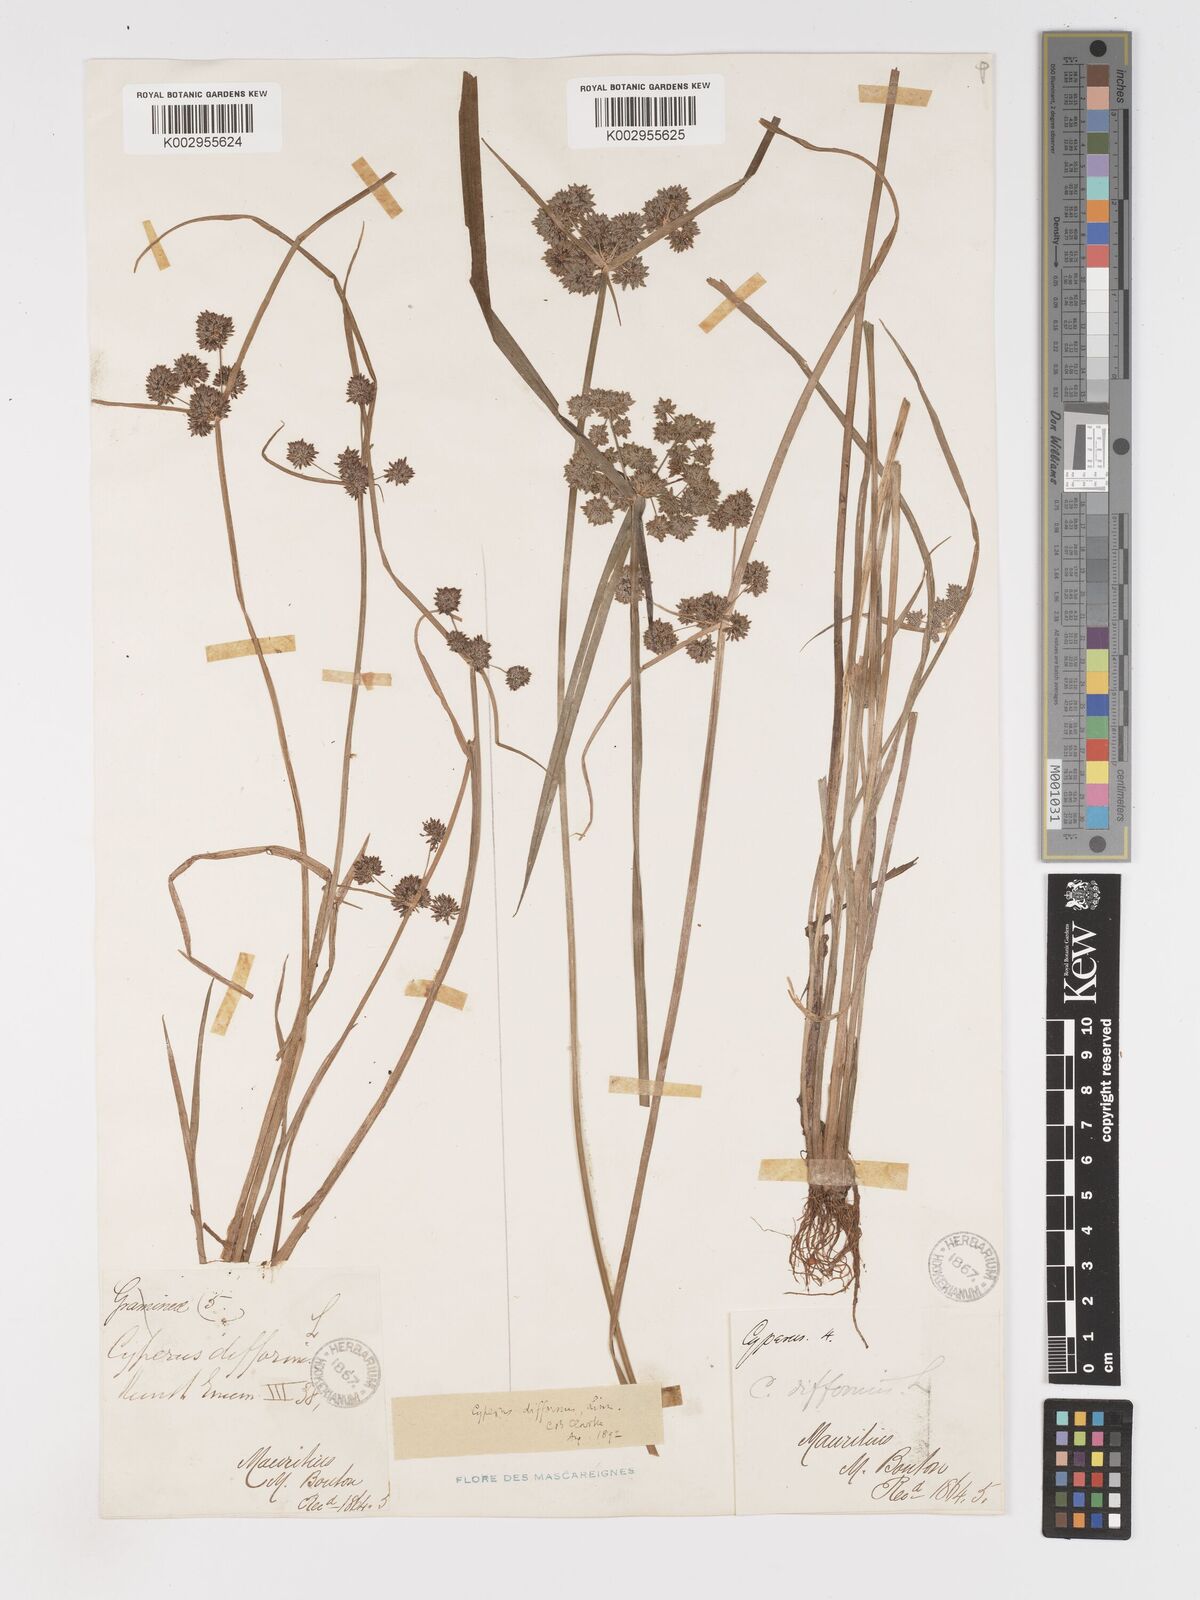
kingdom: Plantae
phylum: Tracheophyta
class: Liliopsida
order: Poales
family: Cyperaceae
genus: Cyperus
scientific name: Cyperus difformis
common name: Variable flatsedge
